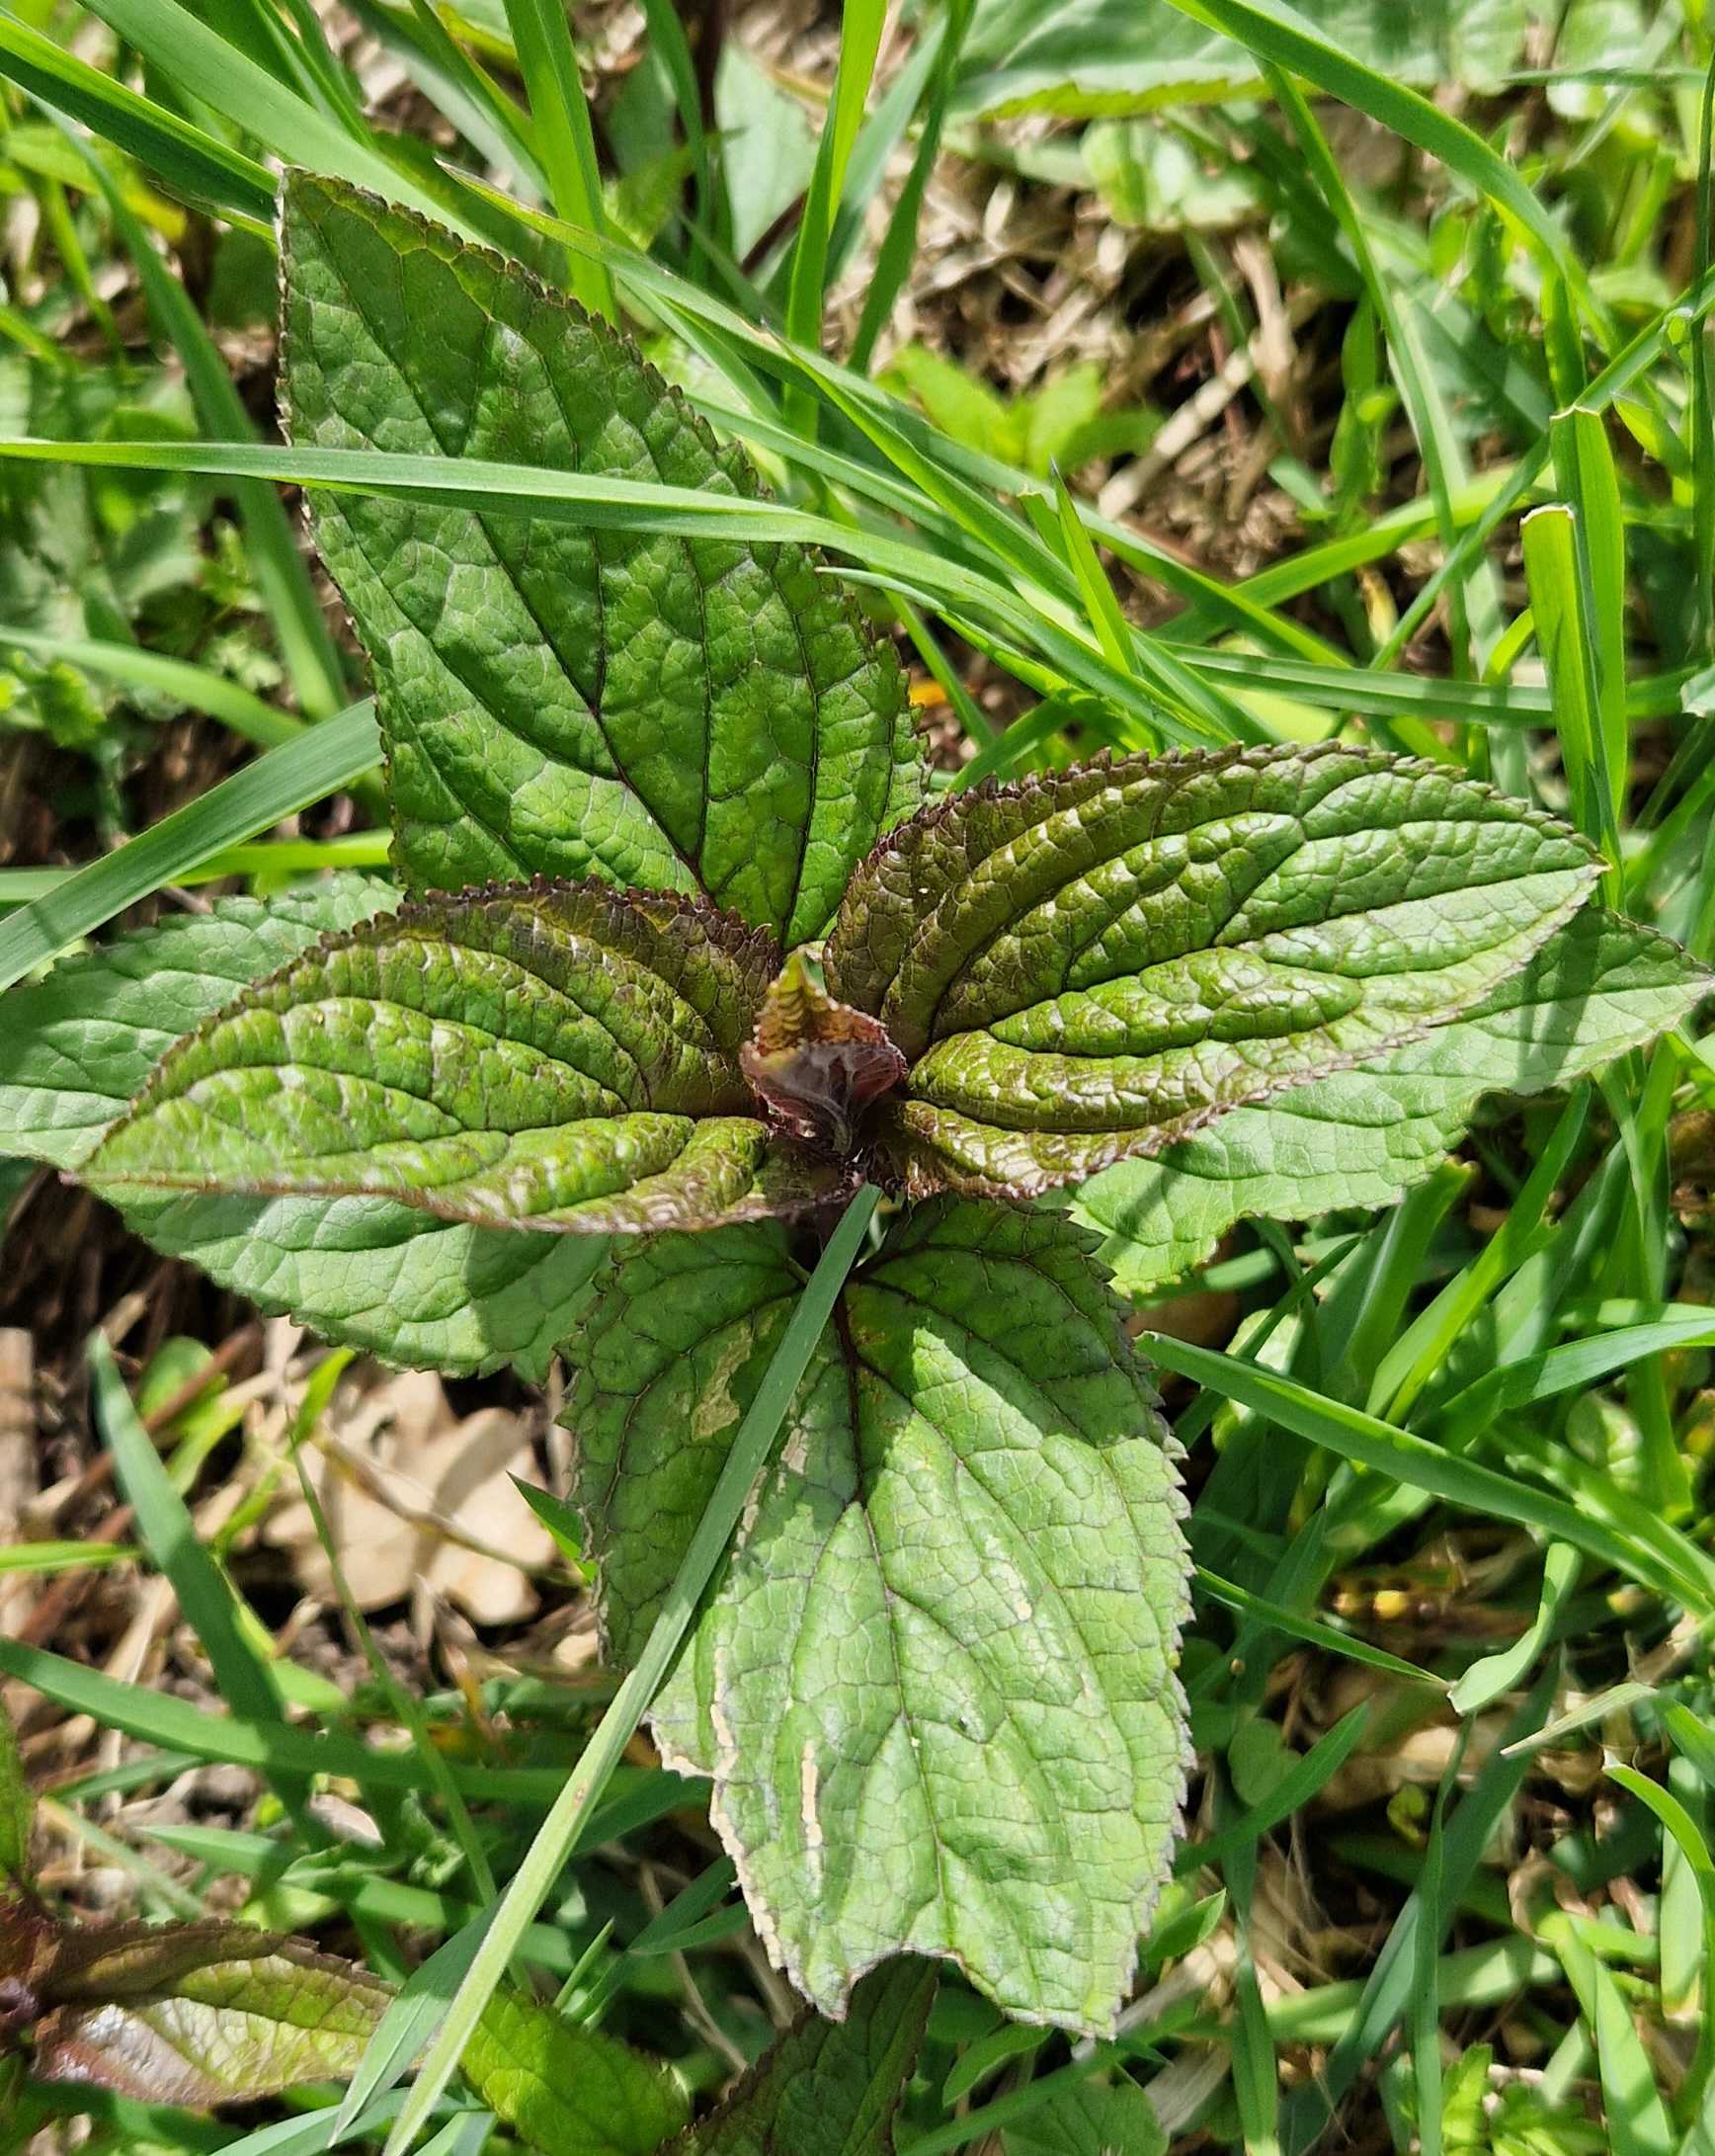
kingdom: Plantae
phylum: Tracheophyta
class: Magnoliopsida
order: Lamiales
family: Scrophulariaceae
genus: Scrophularia
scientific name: Scrophularia nodosa
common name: Knoldet brunrod
